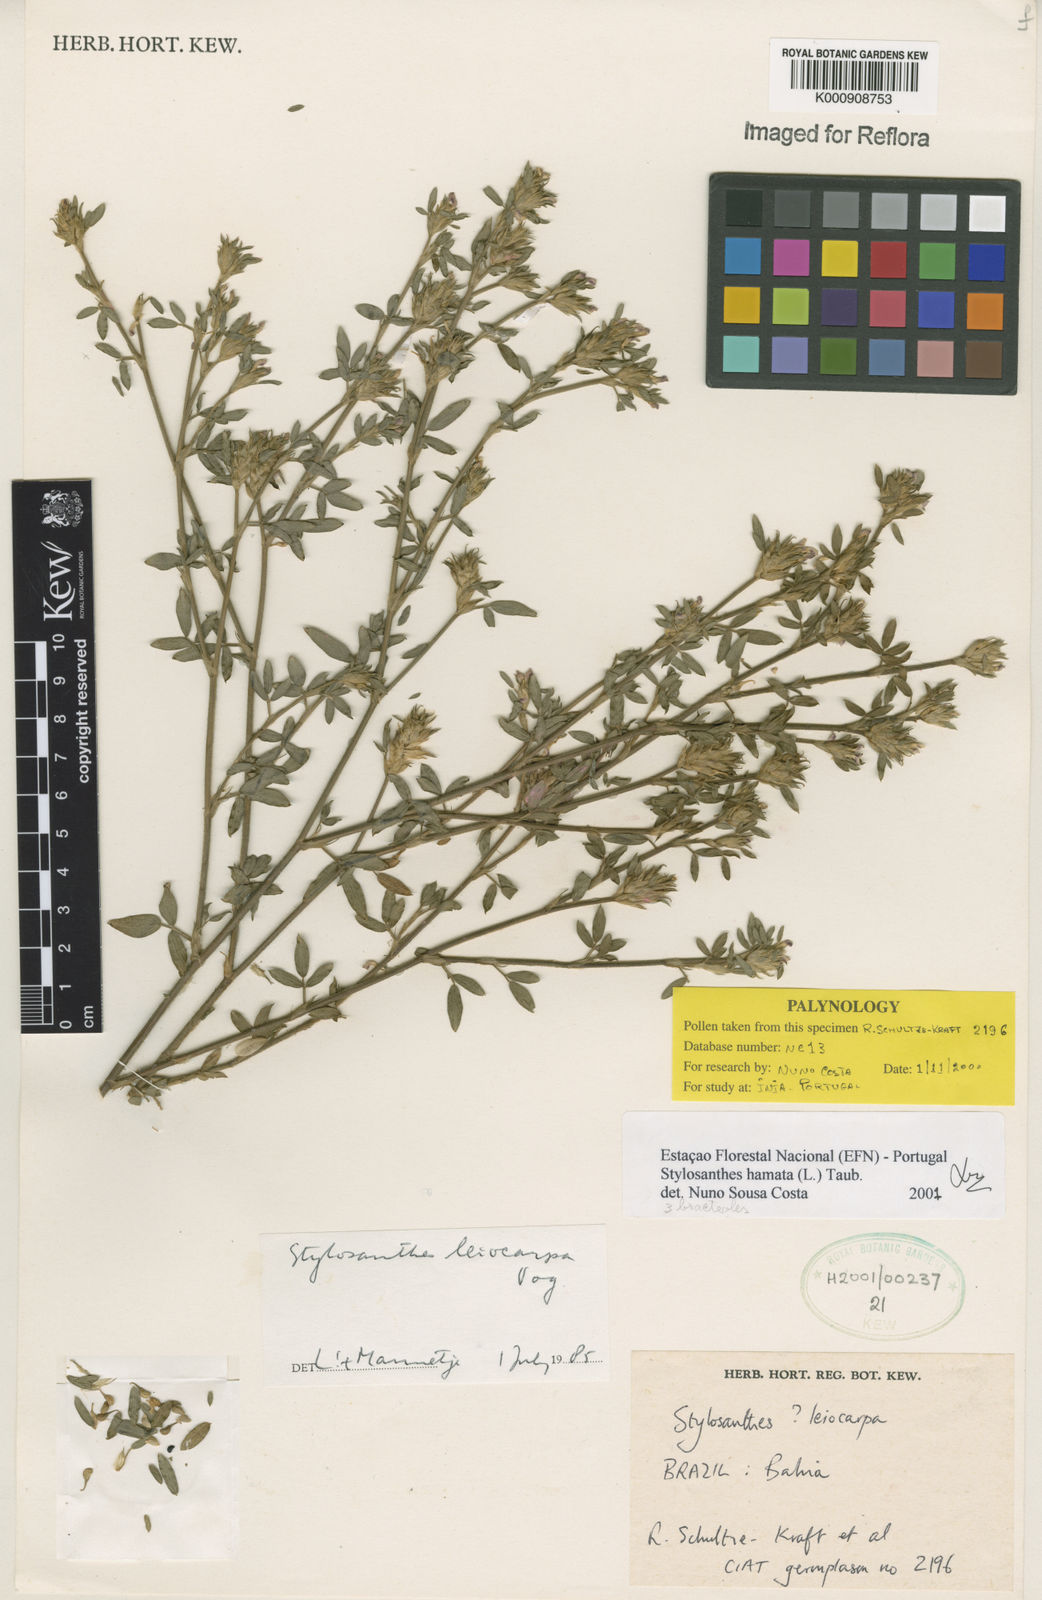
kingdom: Plantae
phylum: Tracheophyta
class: Magnoliopsida
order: Fabales
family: Fabaceae
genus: Stylosanthes
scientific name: Stylosanthes hamata
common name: Cheesytoes
